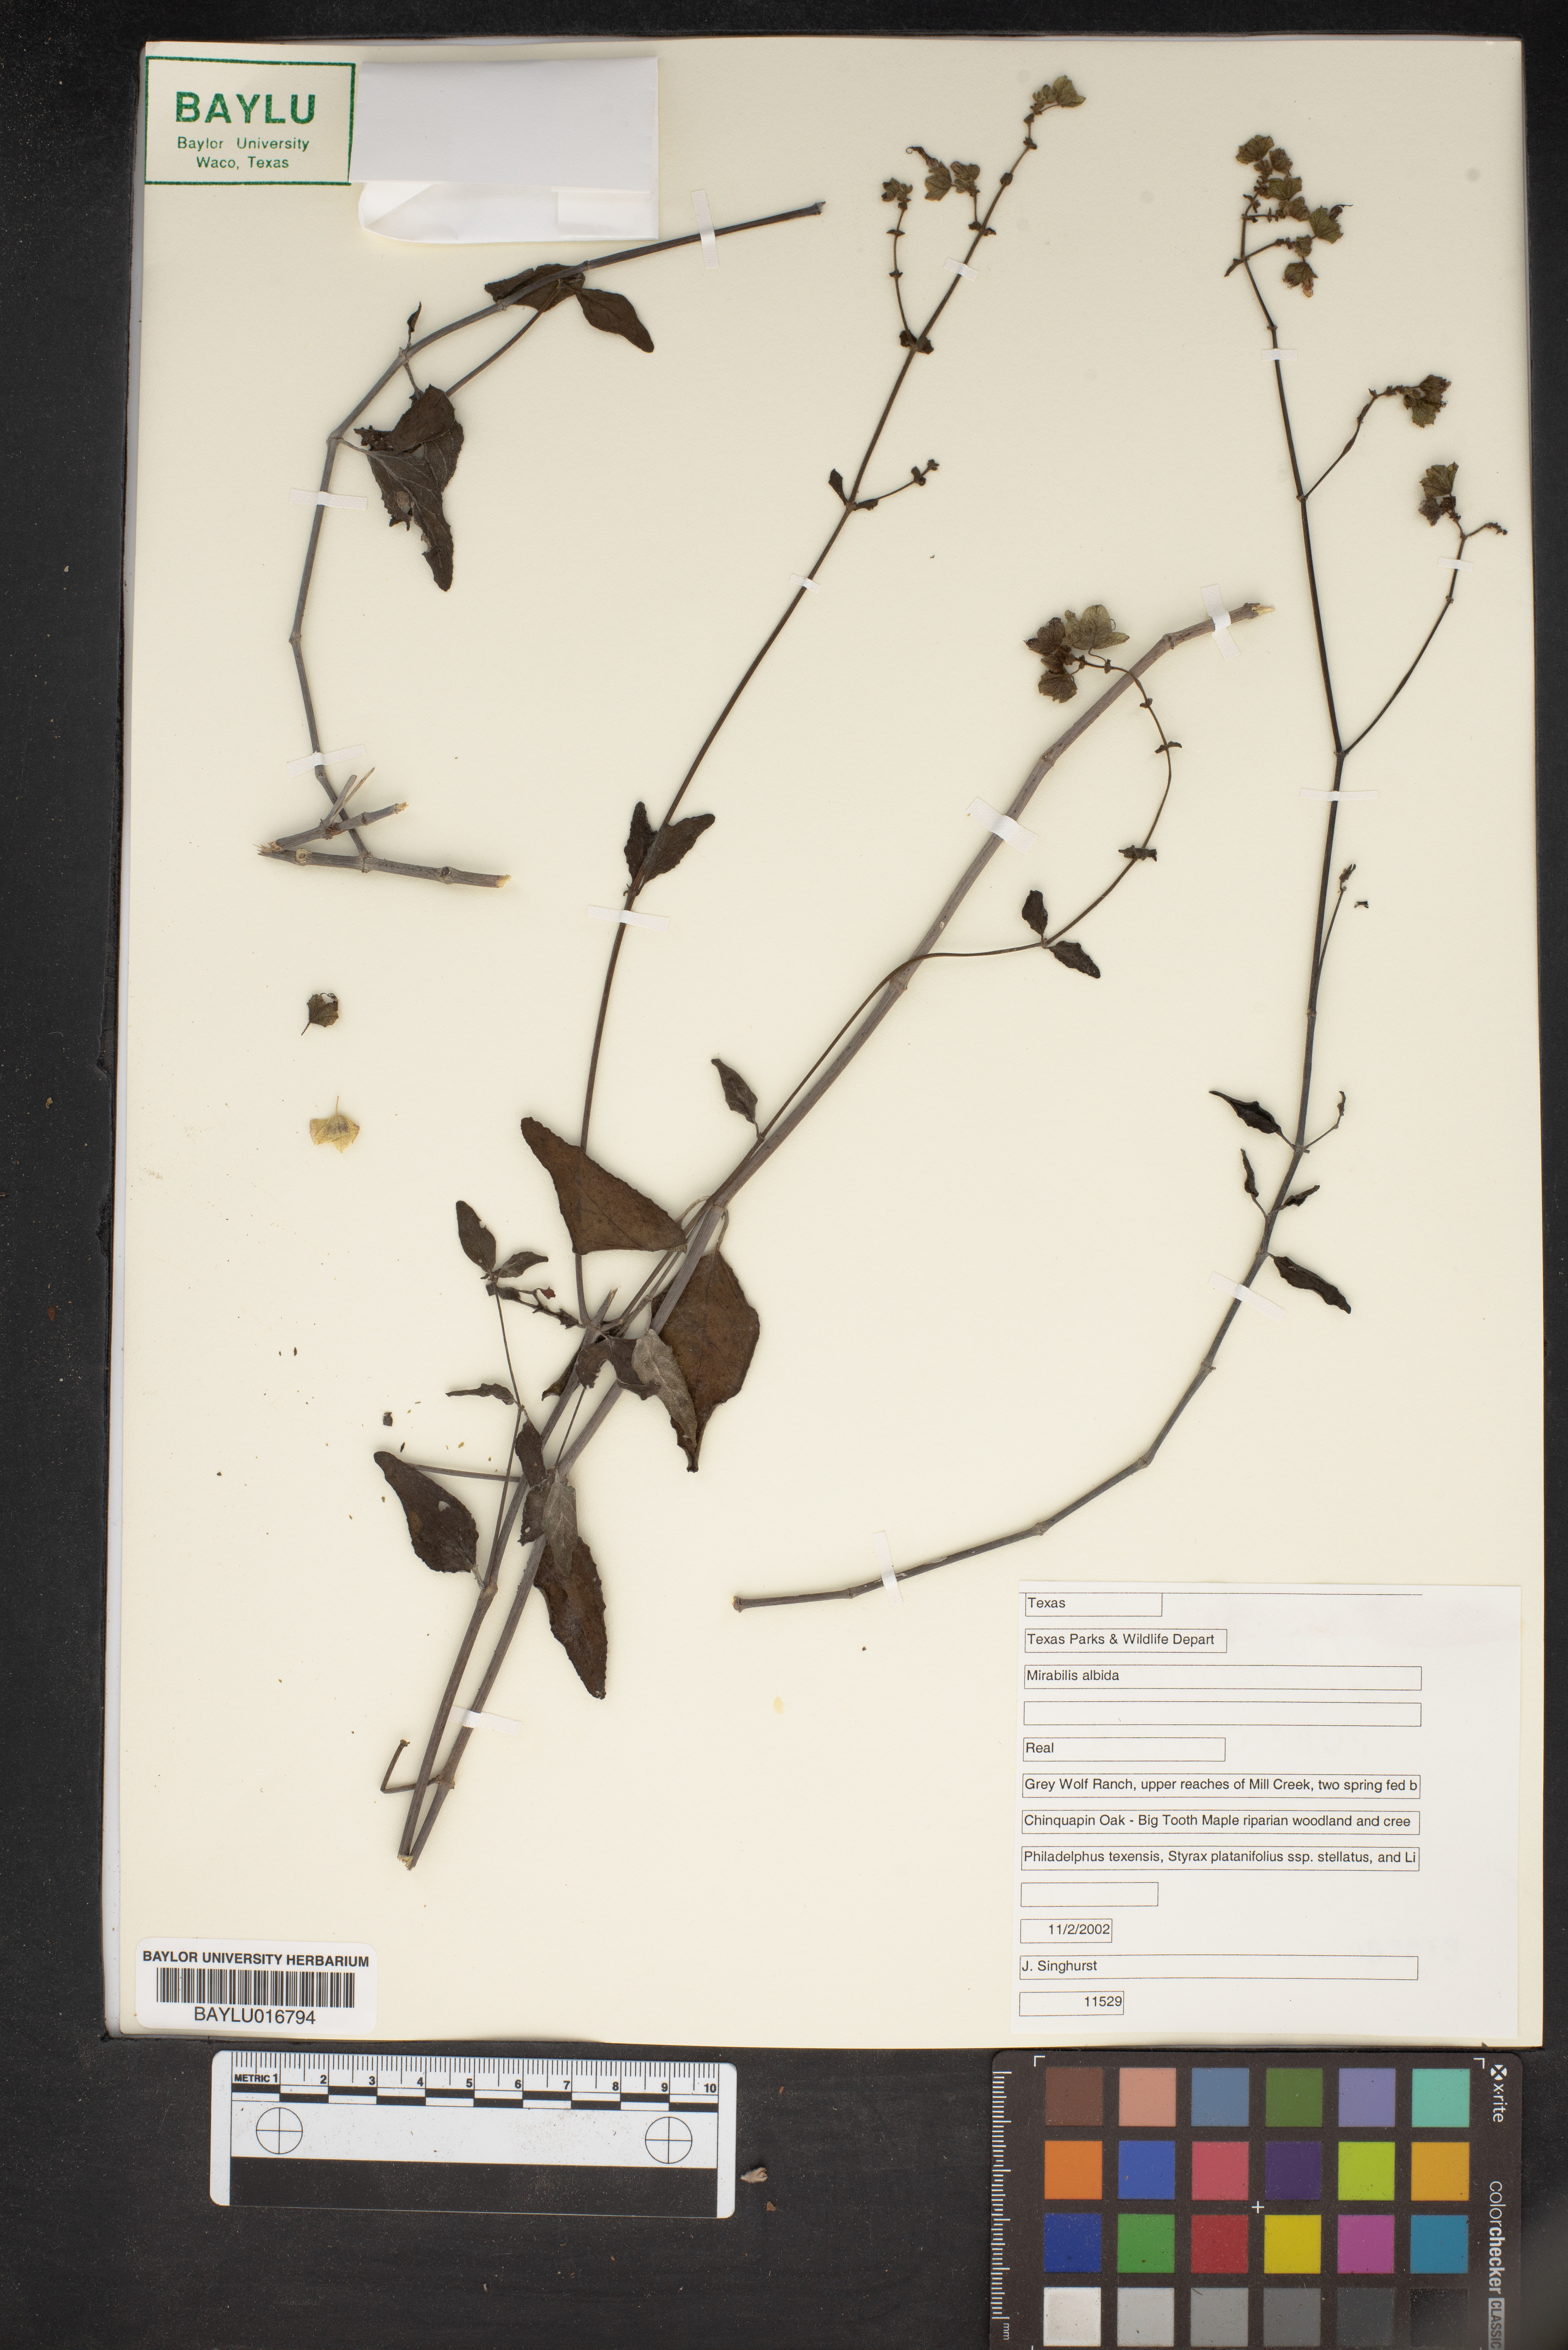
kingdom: Plantae
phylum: Tracheophyta
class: Magnoliopsida
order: Caryophyllales
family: Nyctaginaceae
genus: Mirabilis
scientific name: Mirabilis albida
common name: Hairy four-o'clock
